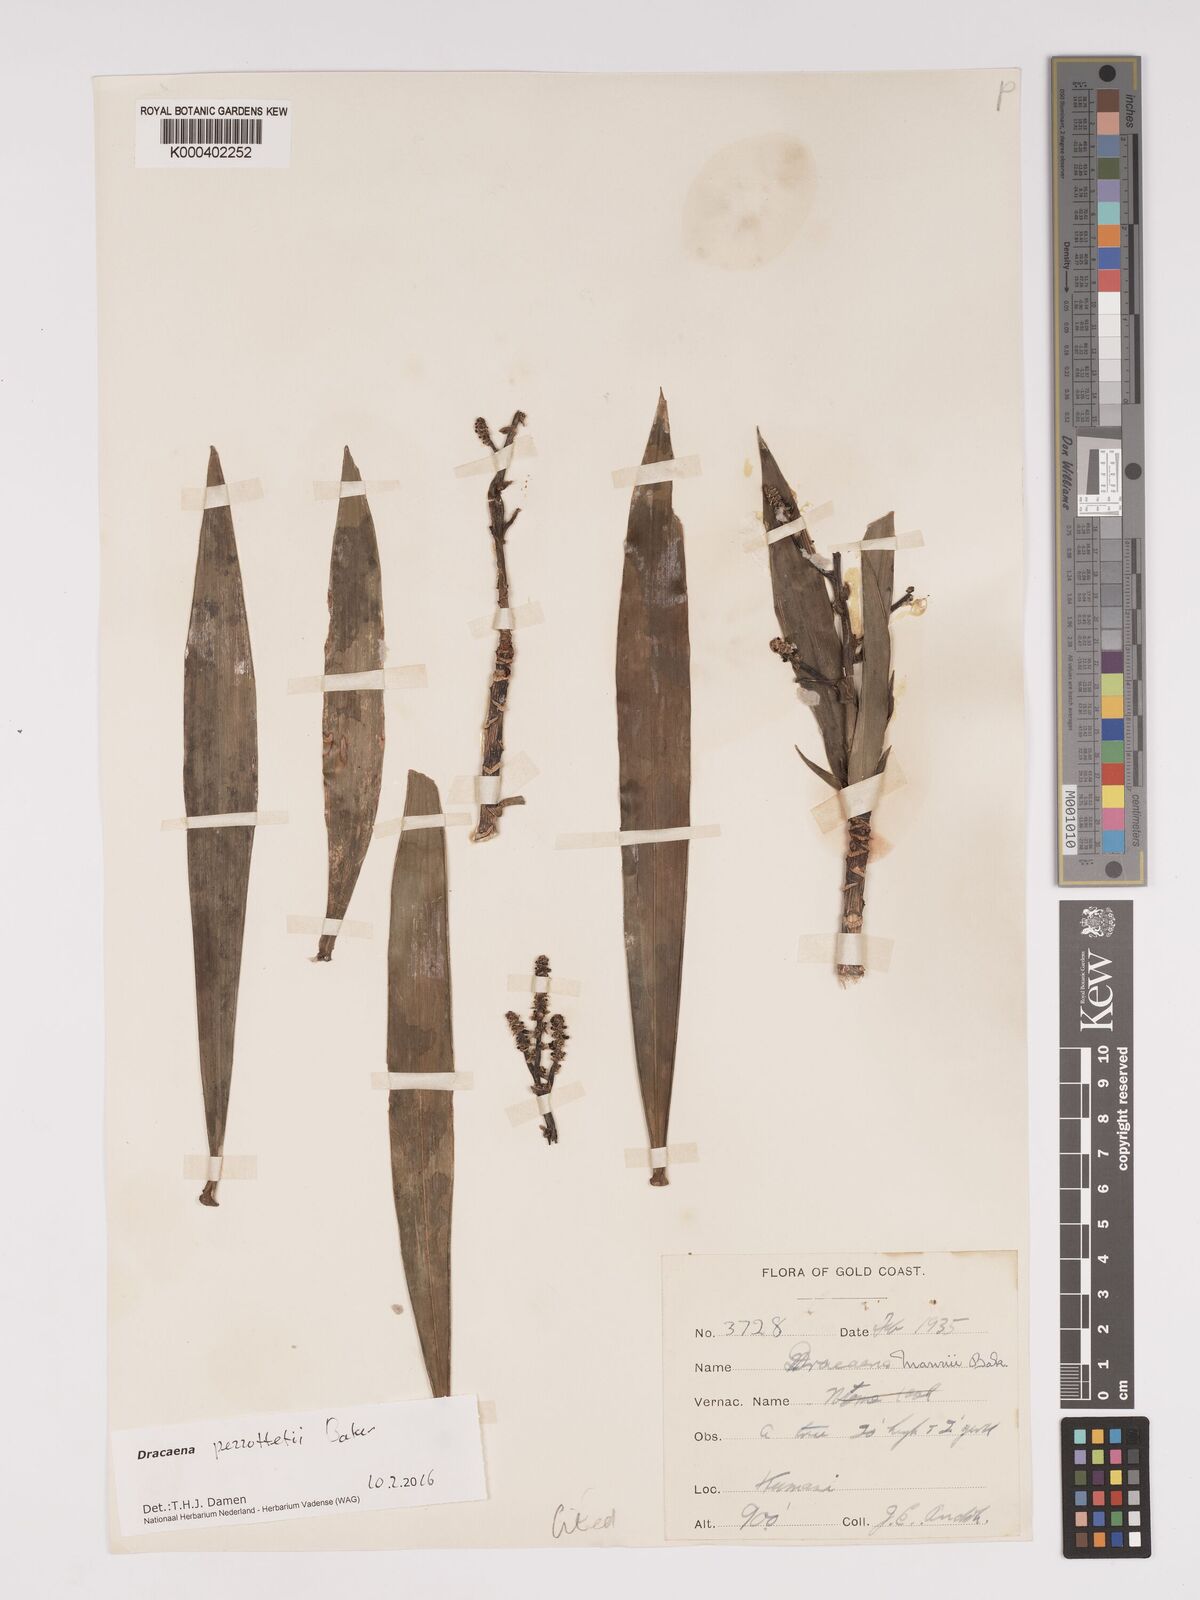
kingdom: Plantae
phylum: Tracheophyta
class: Liliopsida
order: Asparagales
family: Asparagaceae
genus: Dracaena
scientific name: Dracaena perrottetii
